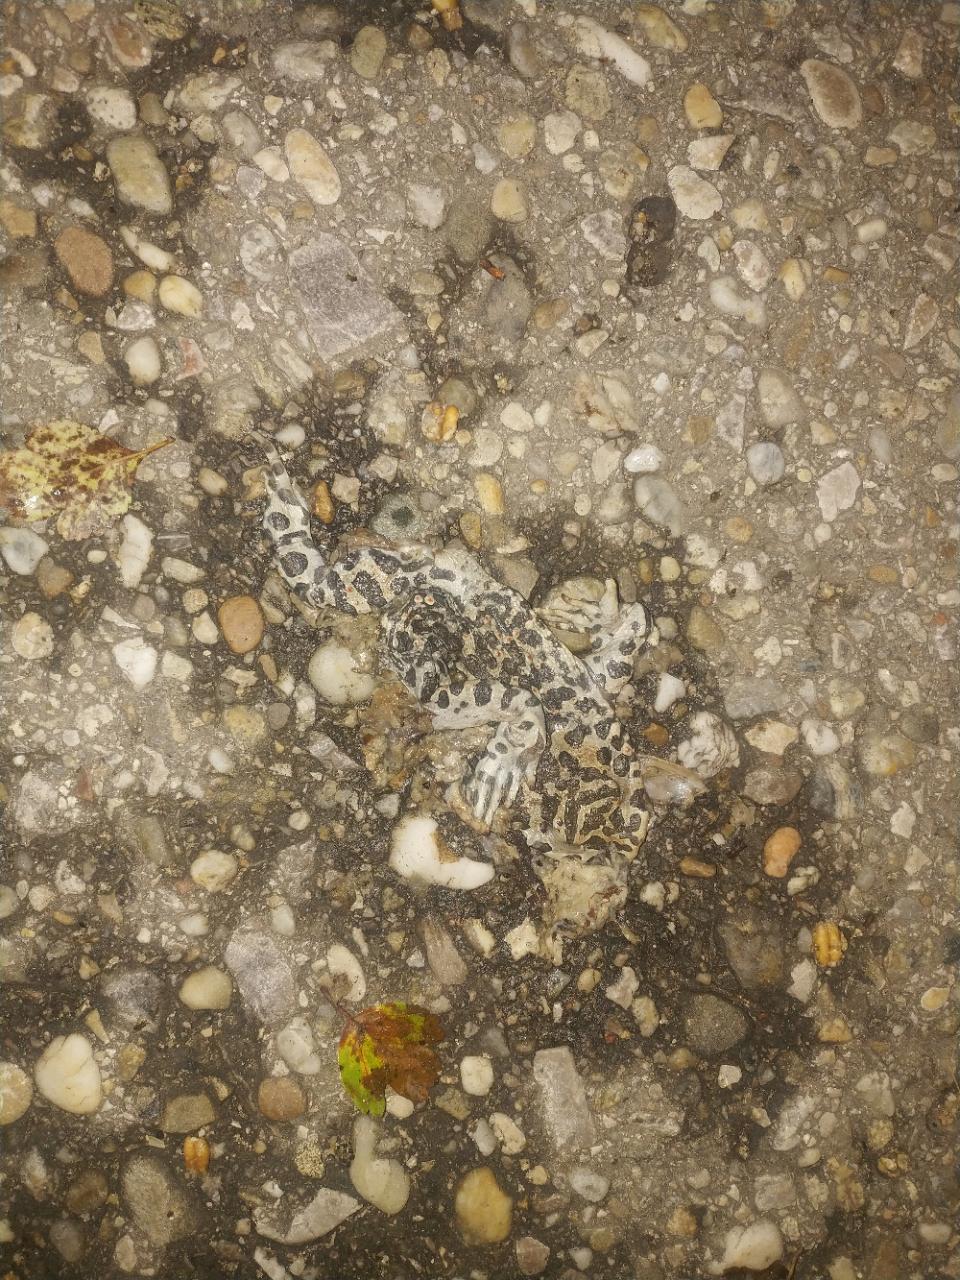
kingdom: Animalia
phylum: Chordata
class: Amphibia
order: Anura
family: Bufonidae
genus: Bufotes
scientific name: Bufotes viridis
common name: European green toad
